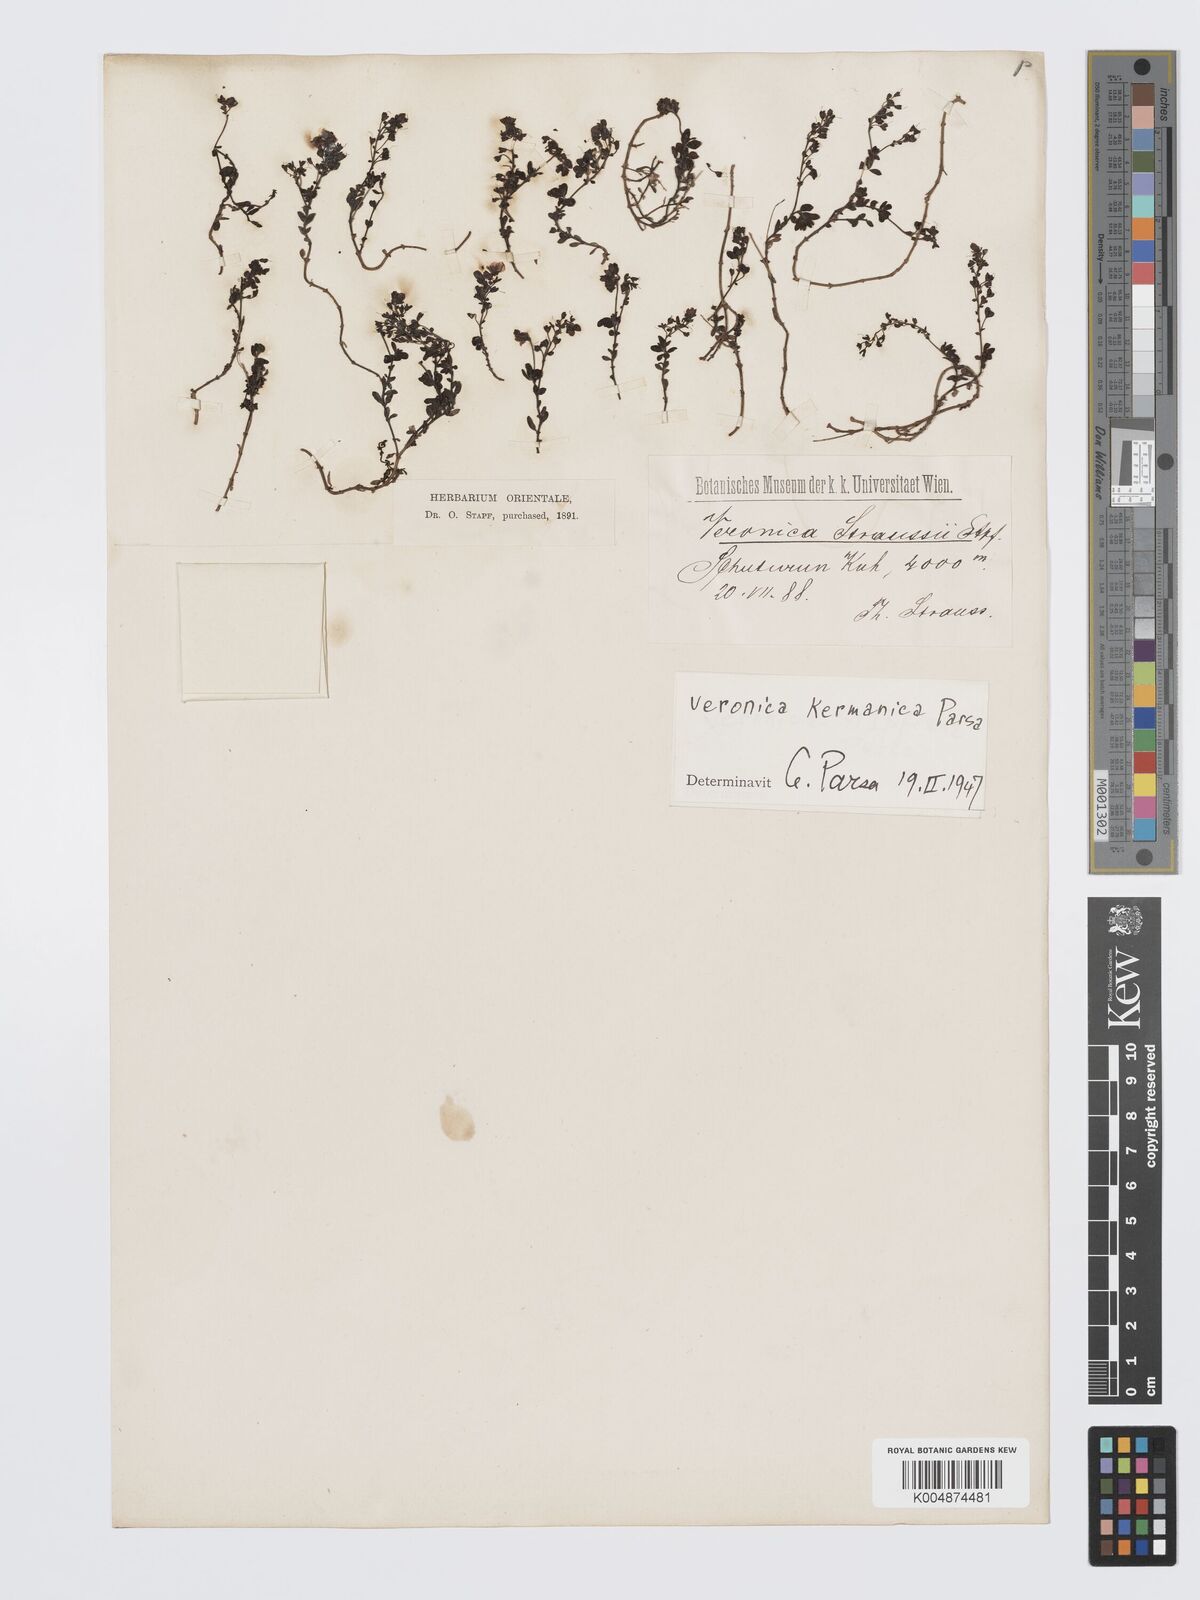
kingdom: Plantae
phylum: Tracheophyta
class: Magnoliopsida
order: Lamiales
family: Plantaginaceae
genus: Veronica
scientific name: Veronica kurdica
